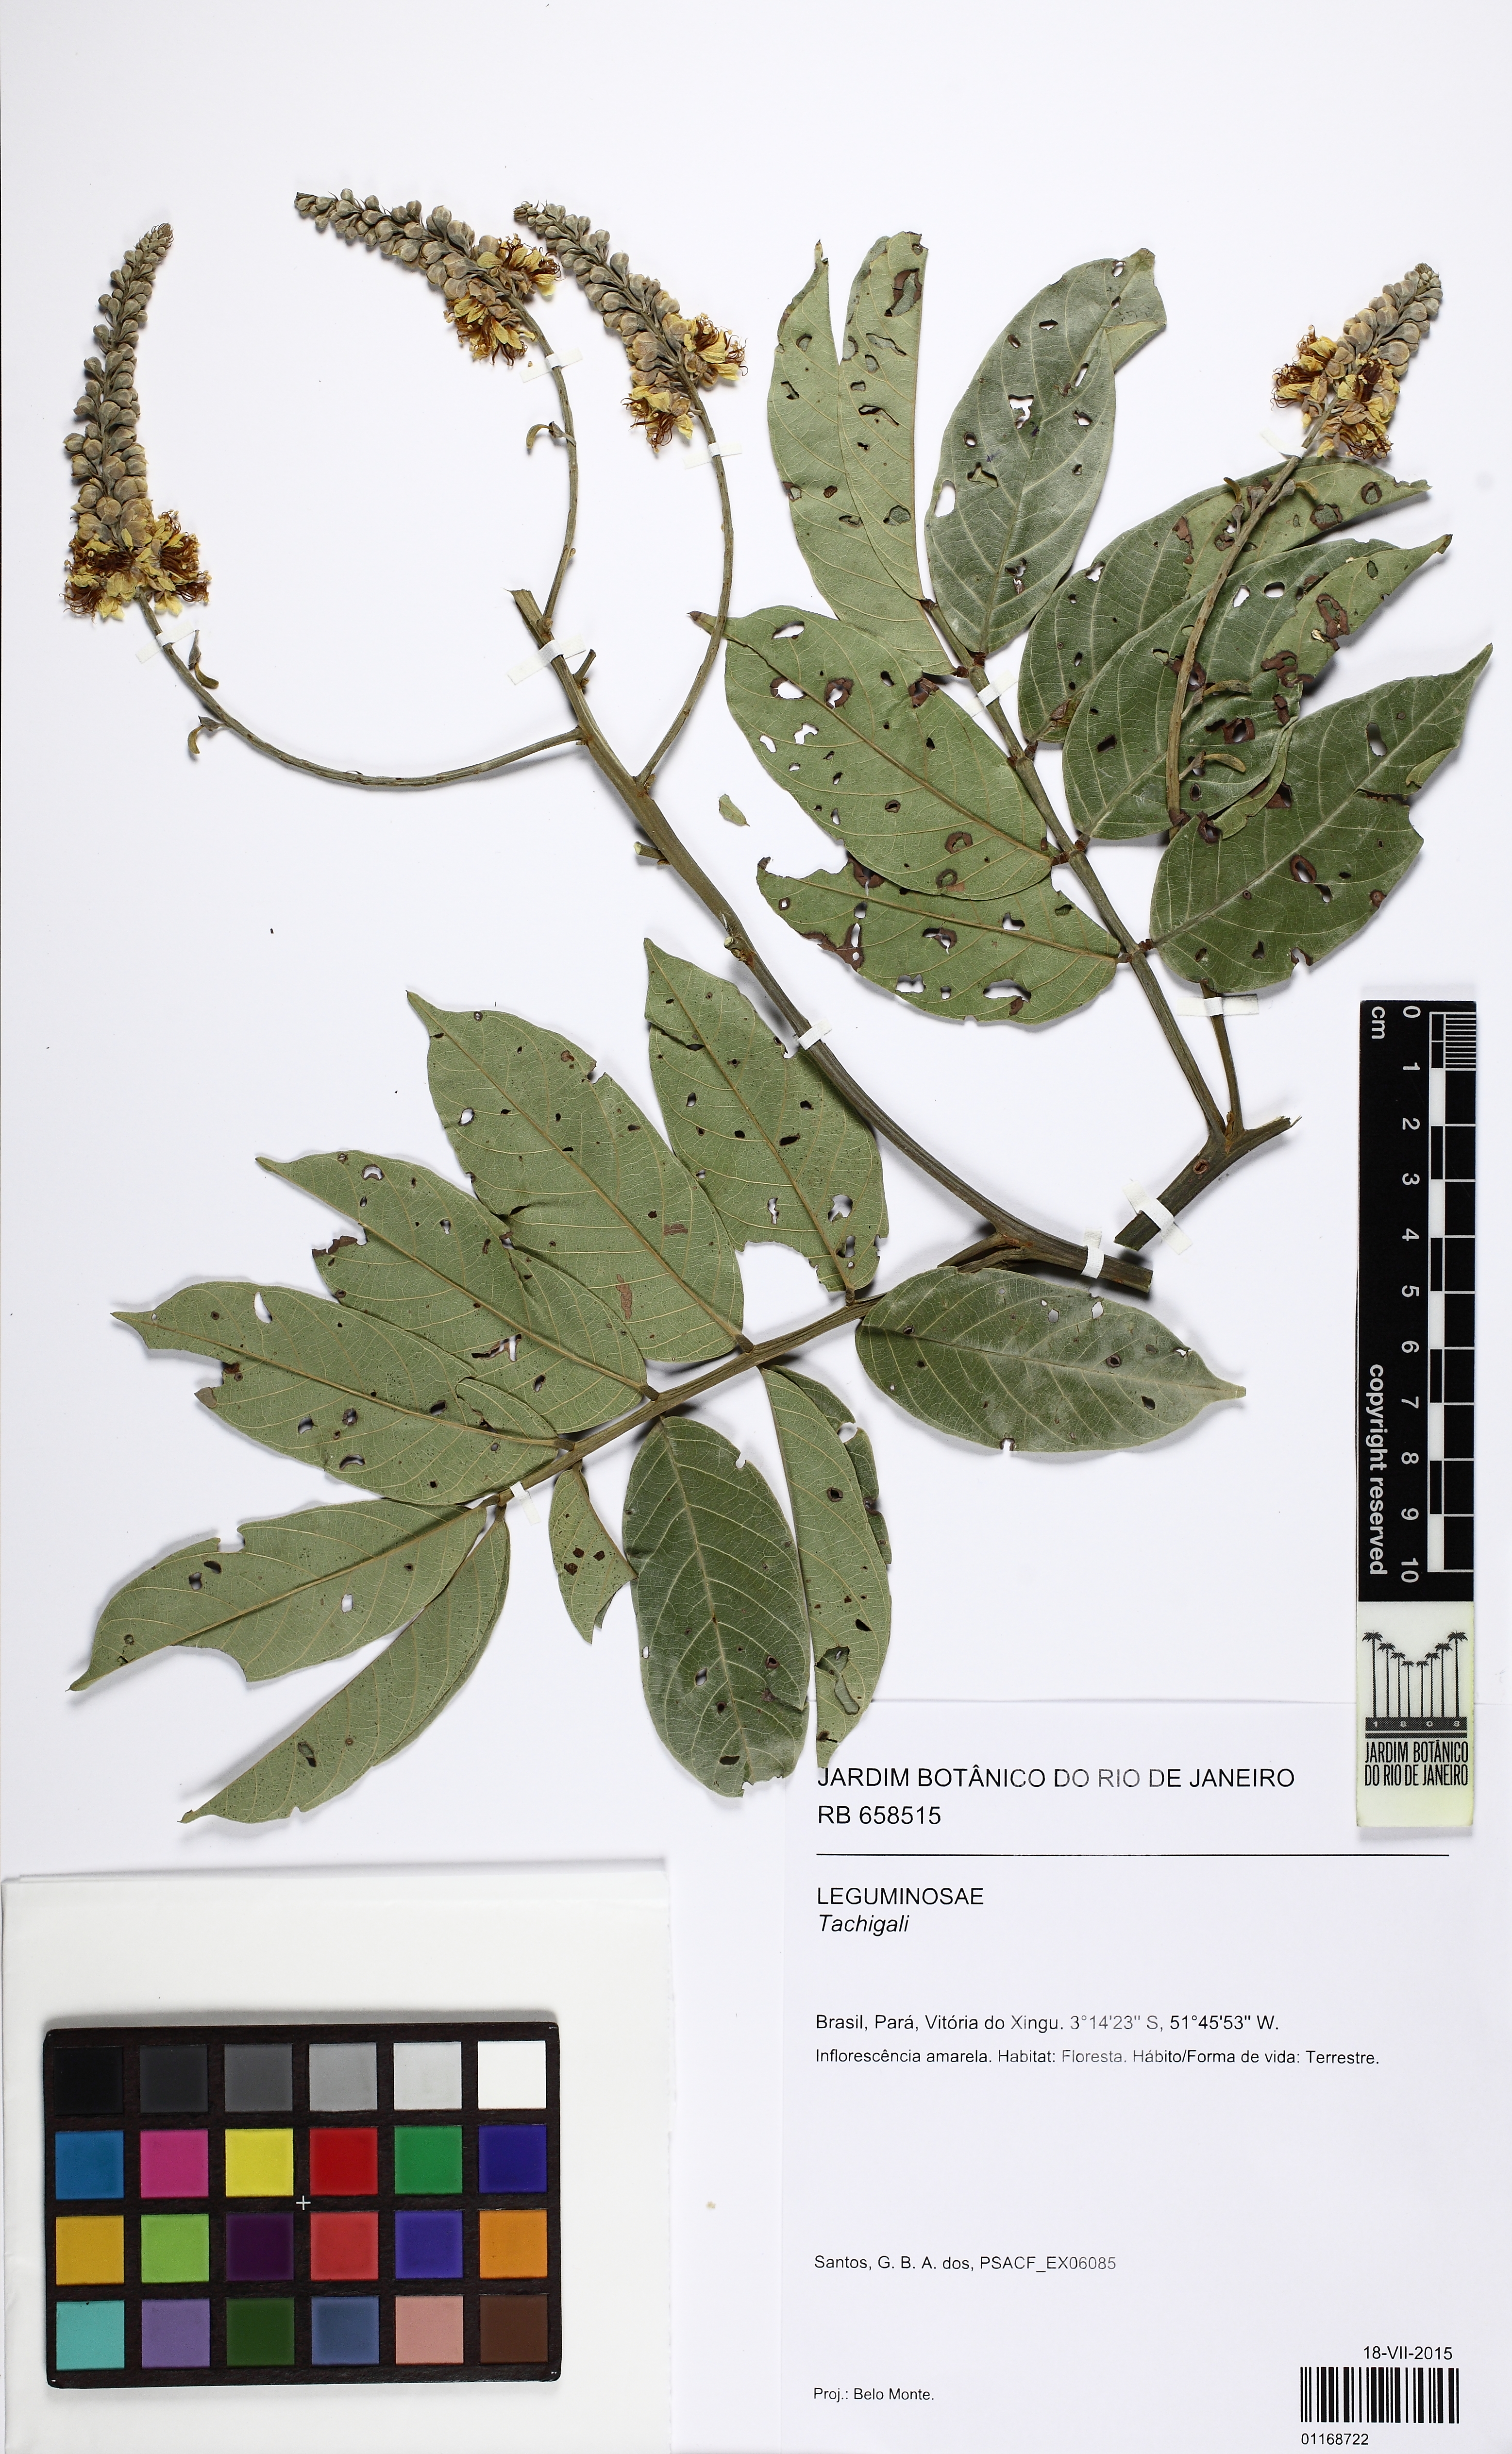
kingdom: Plantae
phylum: Tracheophyta
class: Magnoliopsida
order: Fabales
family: Fabaceae
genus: Tachigali
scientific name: Tachigali paniculata
